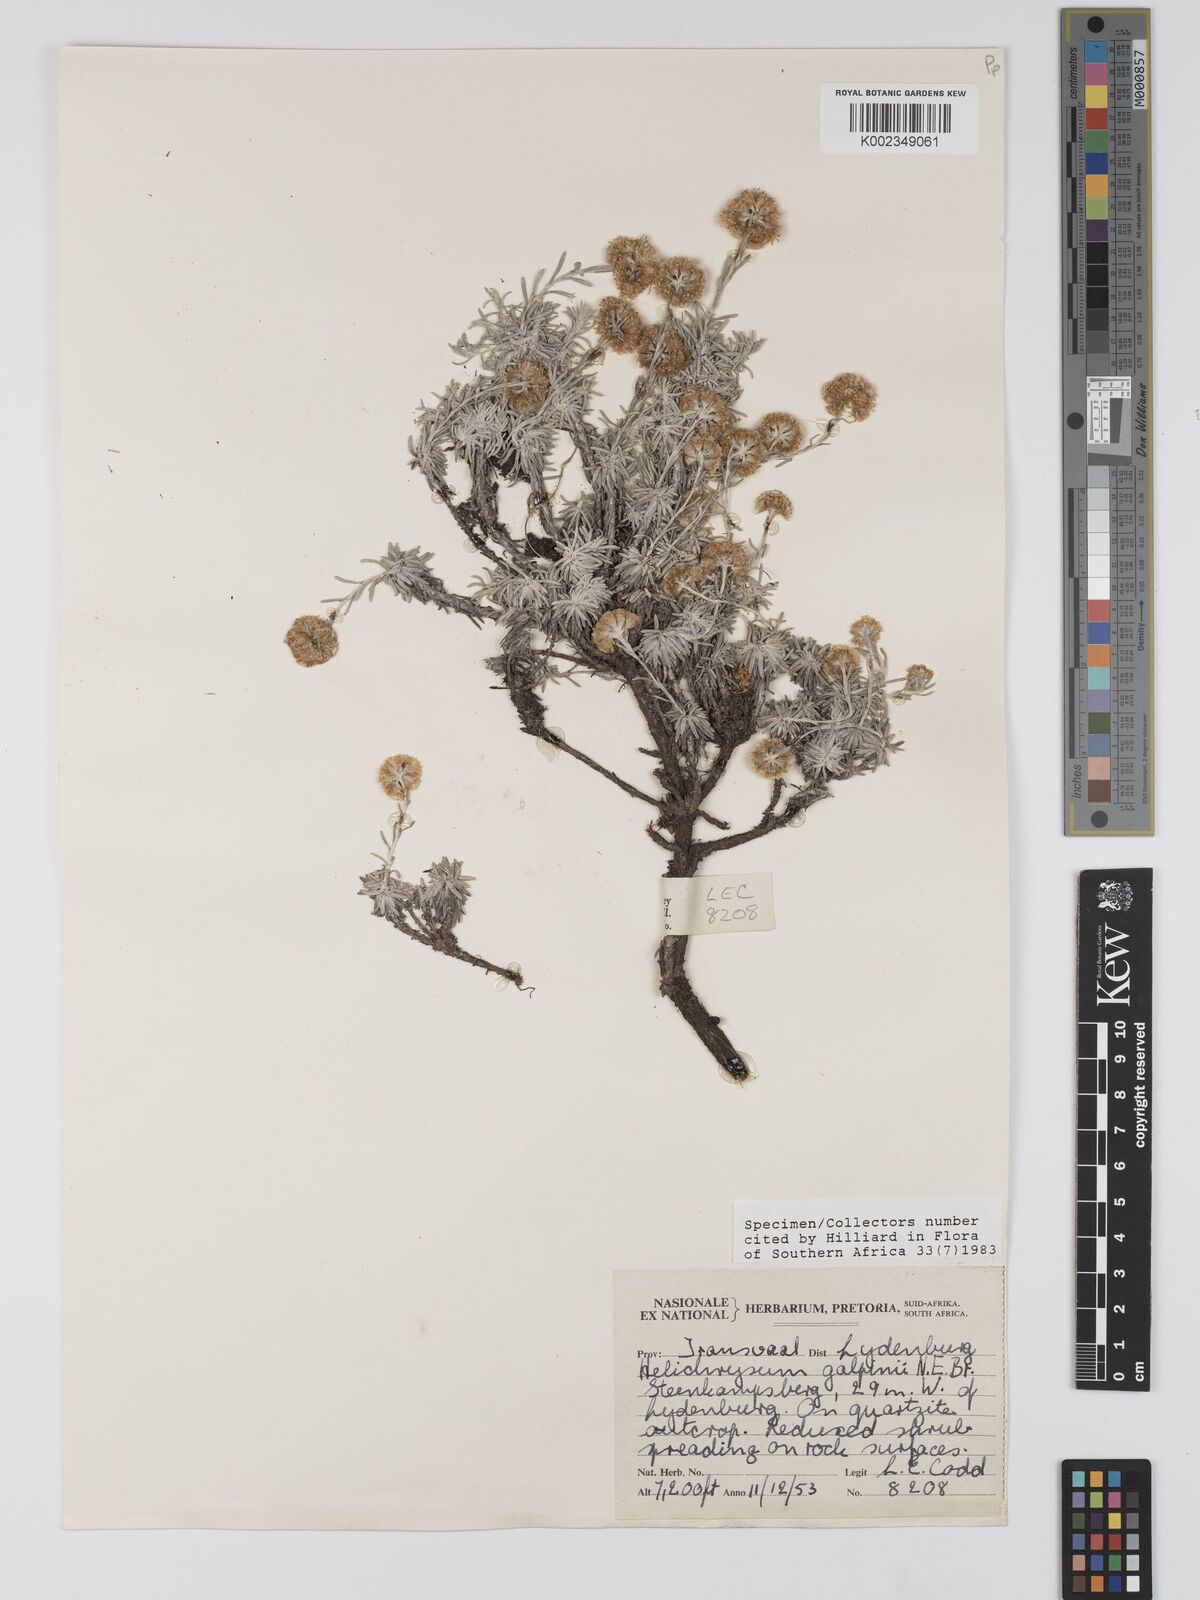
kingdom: Plantae
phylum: Tracheophyta
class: Magnoliopsida
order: Asterales
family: Asteraceae
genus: Helichrysum
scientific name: Helichrysum galpinii
